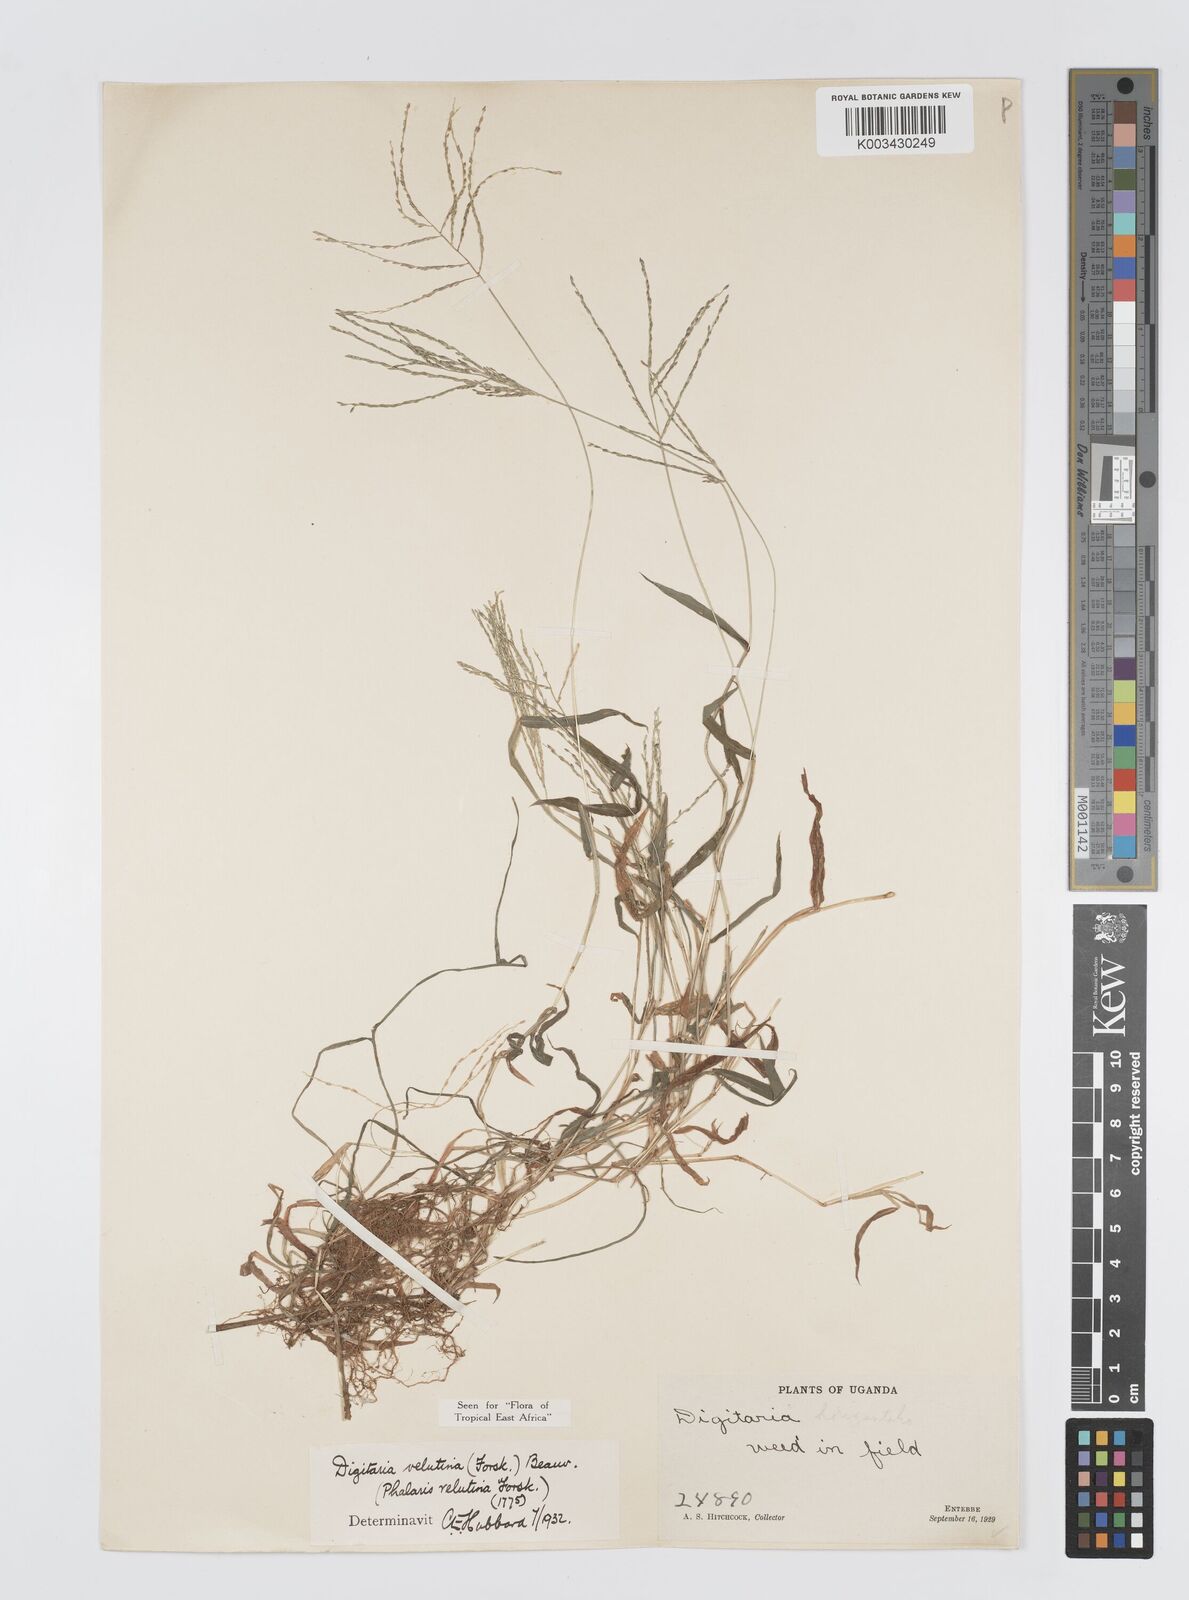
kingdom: Plantae
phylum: Tracheophyta
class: Liliopsida
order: Poales
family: Poaceae
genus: Digitaria
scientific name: Digitaria velutina
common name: Long-plume finger grass
